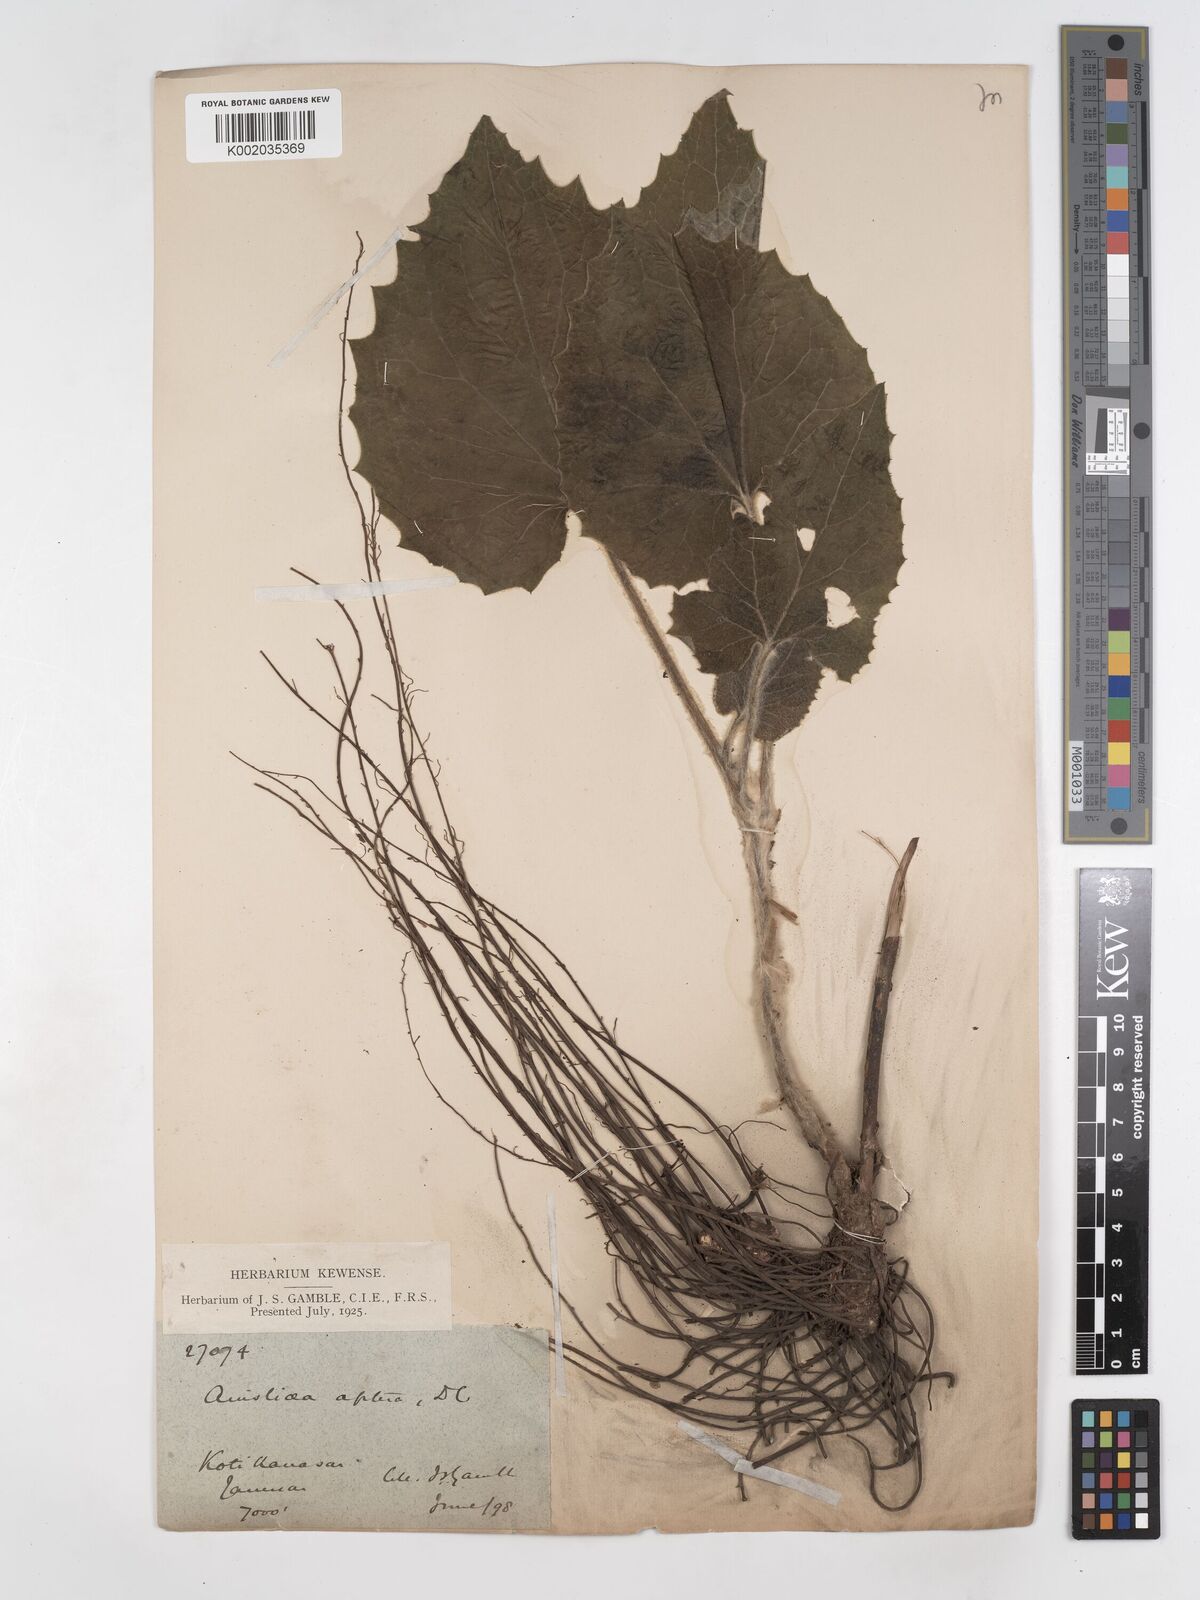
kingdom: Plantae
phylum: Tracheophyta
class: Magnoliopsida
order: Asterales
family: Asteraceae
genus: Ainsliaea
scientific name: Ainsliaea aptera
